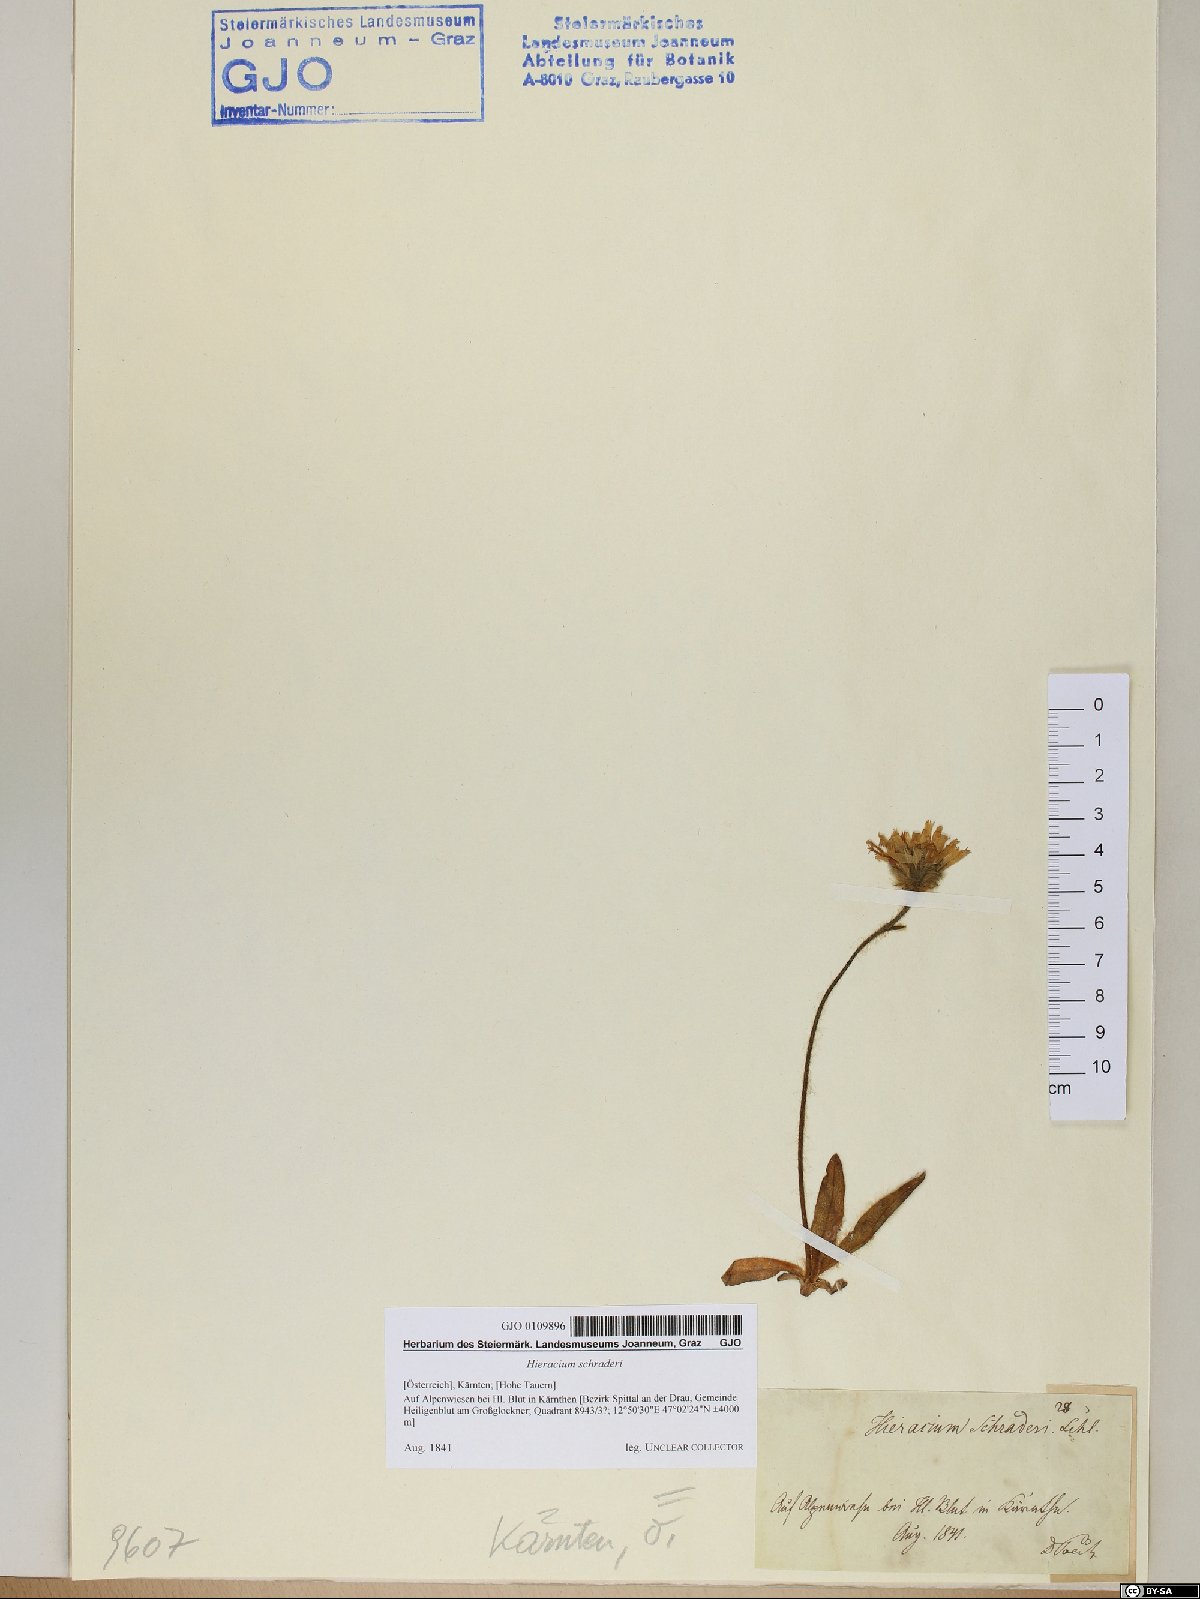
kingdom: Plantae
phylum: Tracheophyta
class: Magnoliopsida
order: Asterales
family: Asteraceae
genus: Hieracium
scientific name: Hieracium schraderi
